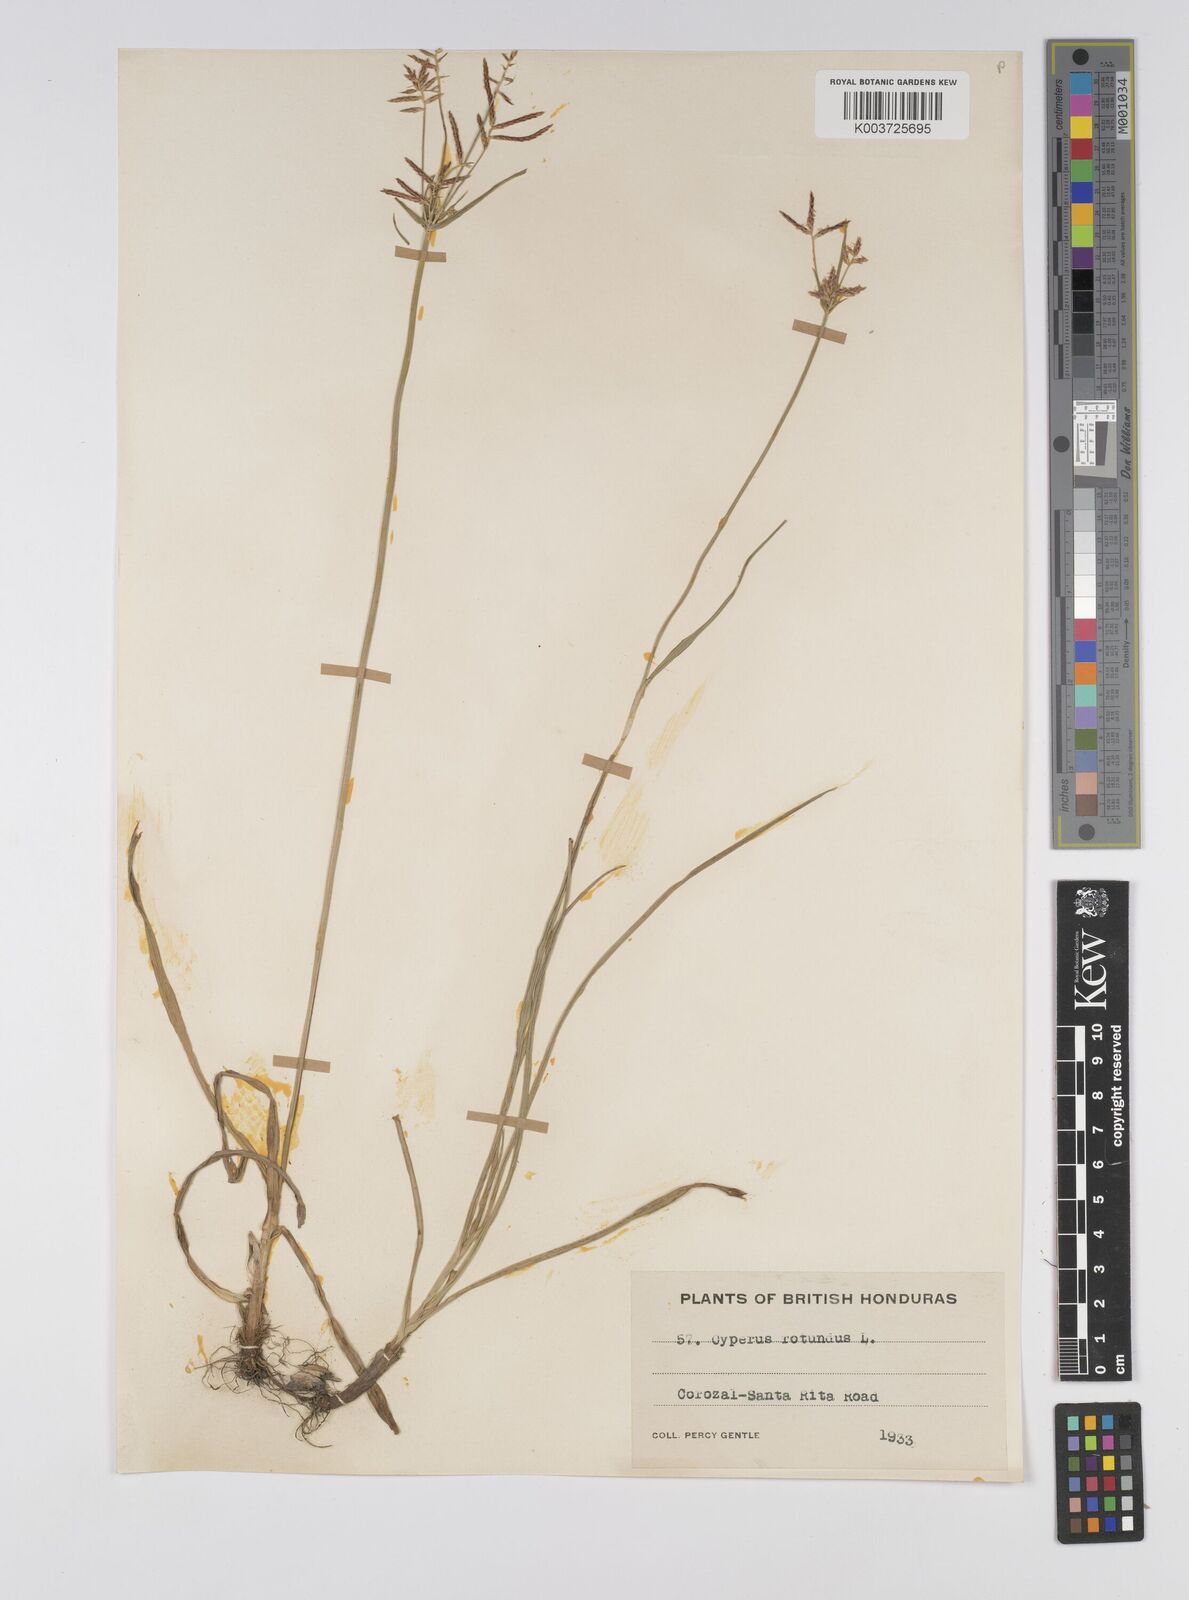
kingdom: Plantae
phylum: Tracheophyta
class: Liliopsida
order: Poales
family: Cyperaceae
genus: Cyperus
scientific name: Cyperus rotundus
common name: Nutgrass
